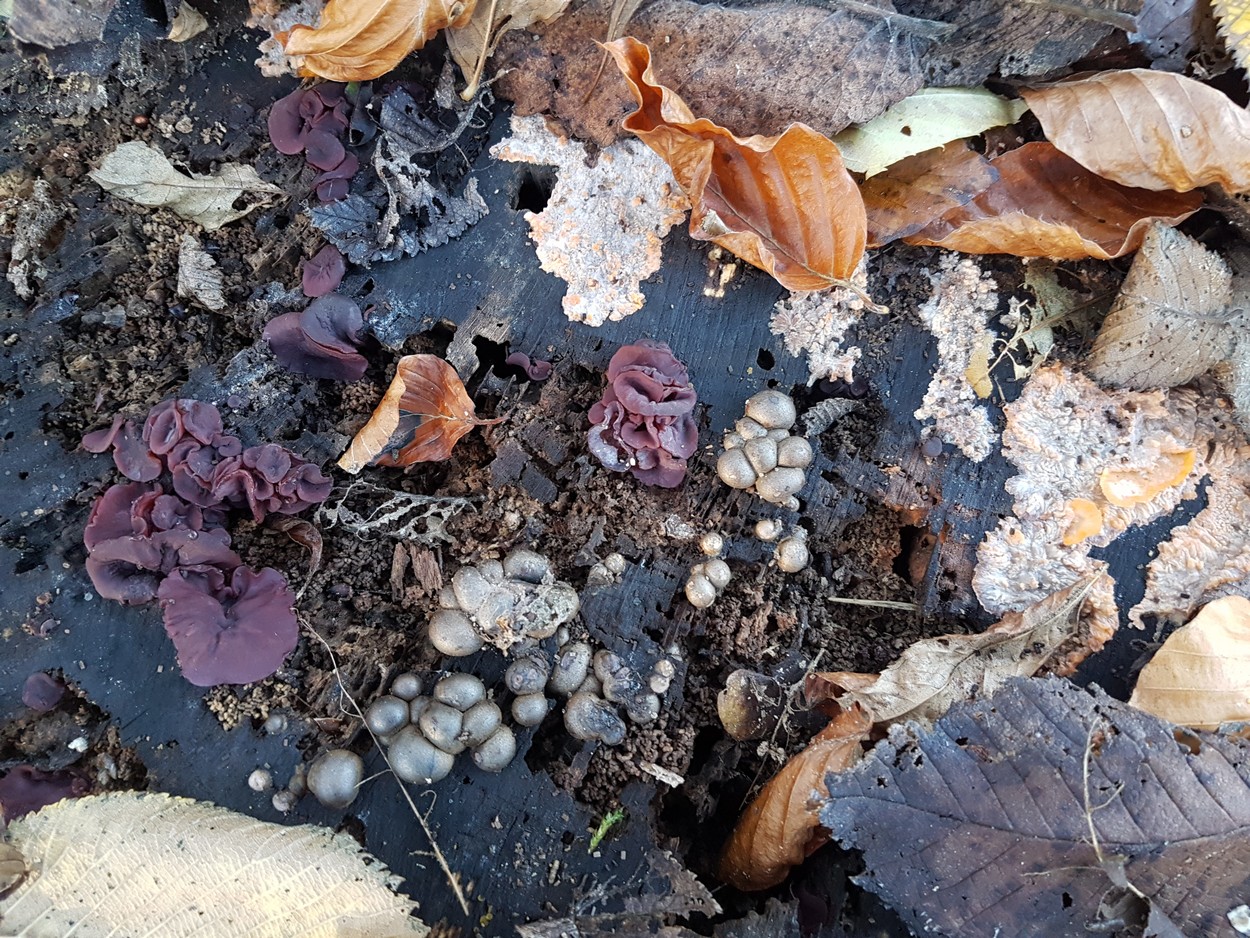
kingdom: Fungi
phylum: Ascomycota
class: Leotiomycetes
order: Helotiales
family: Gelatinodiscaceae
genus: Ascocoryne
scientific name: Ascocoryne cylichnium
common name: stor sejskive
